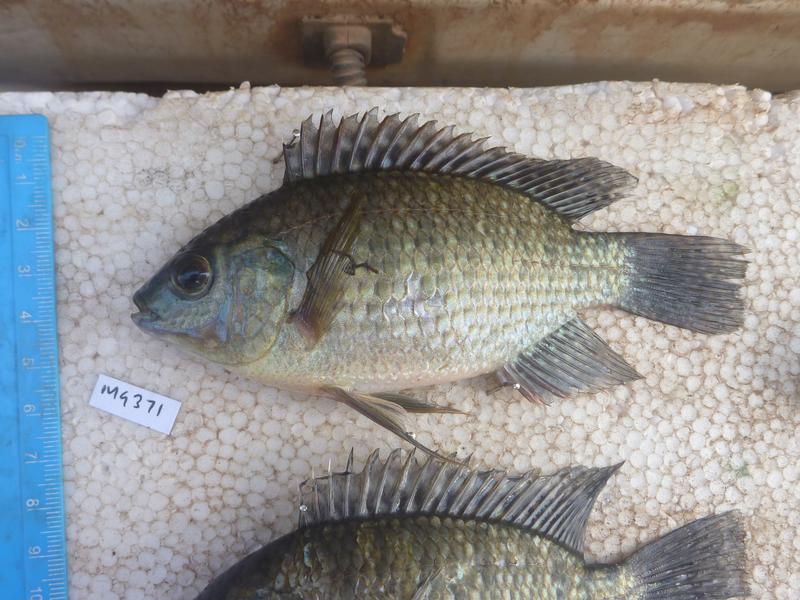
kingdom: Animalia
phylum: Chordata
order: Perciformes
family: Cichlidae
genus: Oreochromis
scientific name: Oreochromis leucostictus
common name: Blue spotted tilapia
